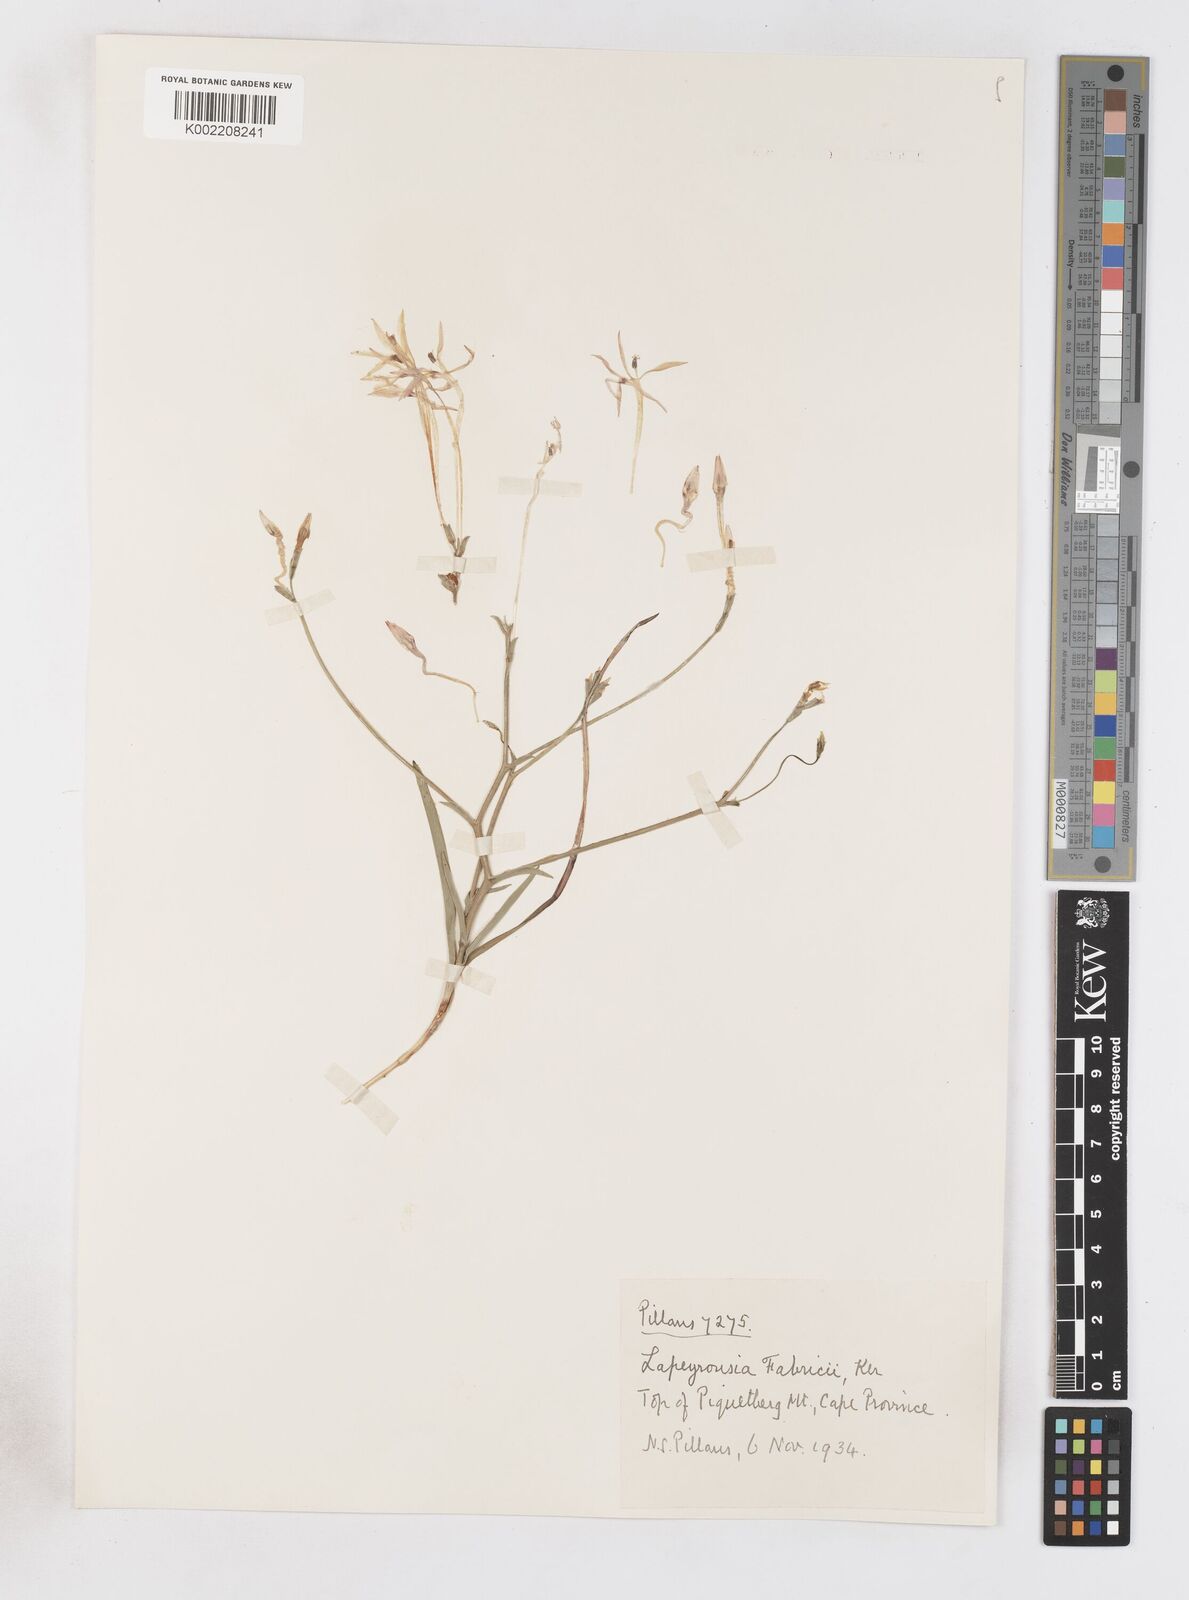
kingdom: Plantae
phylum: Tracheophyta
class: Liliopsida
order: Asparagales
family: Iridaceae
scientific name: Iridaceae
